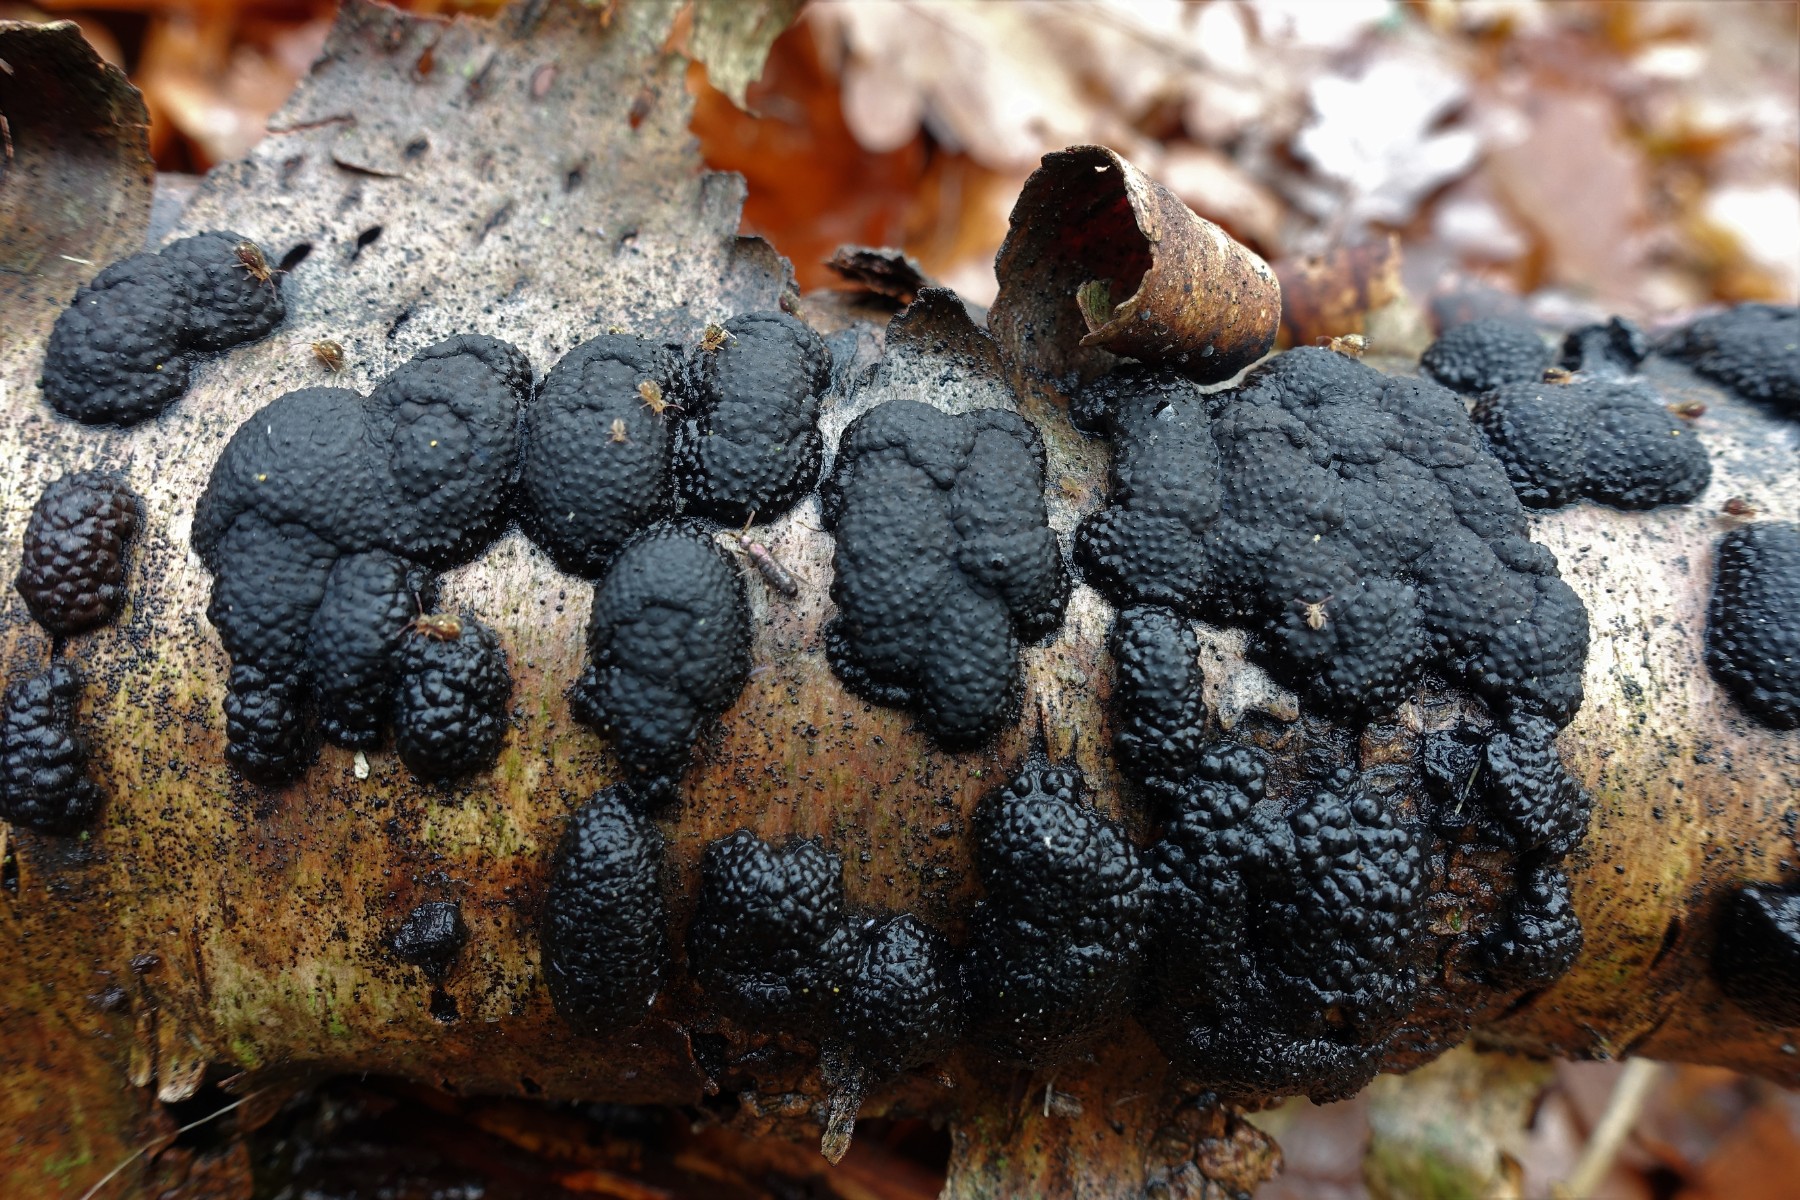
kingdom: Fungi
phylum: Ascomycota
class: Sordariomycetes
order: Xylariales
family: Hypoxylaceae
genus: Jackrogersella
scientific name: Jackrogersella multiformis
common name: foranderlig kulbær
